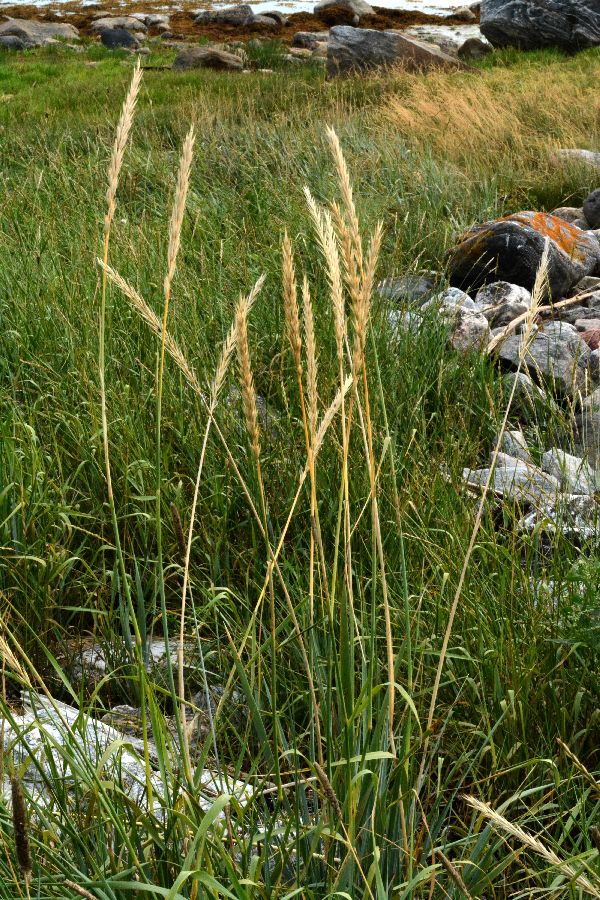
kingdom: Plantae
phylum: Tracheophyta
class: Liliopsida
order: Poales
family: Poaceae
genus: Leymus
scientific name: Leymus arenarius
